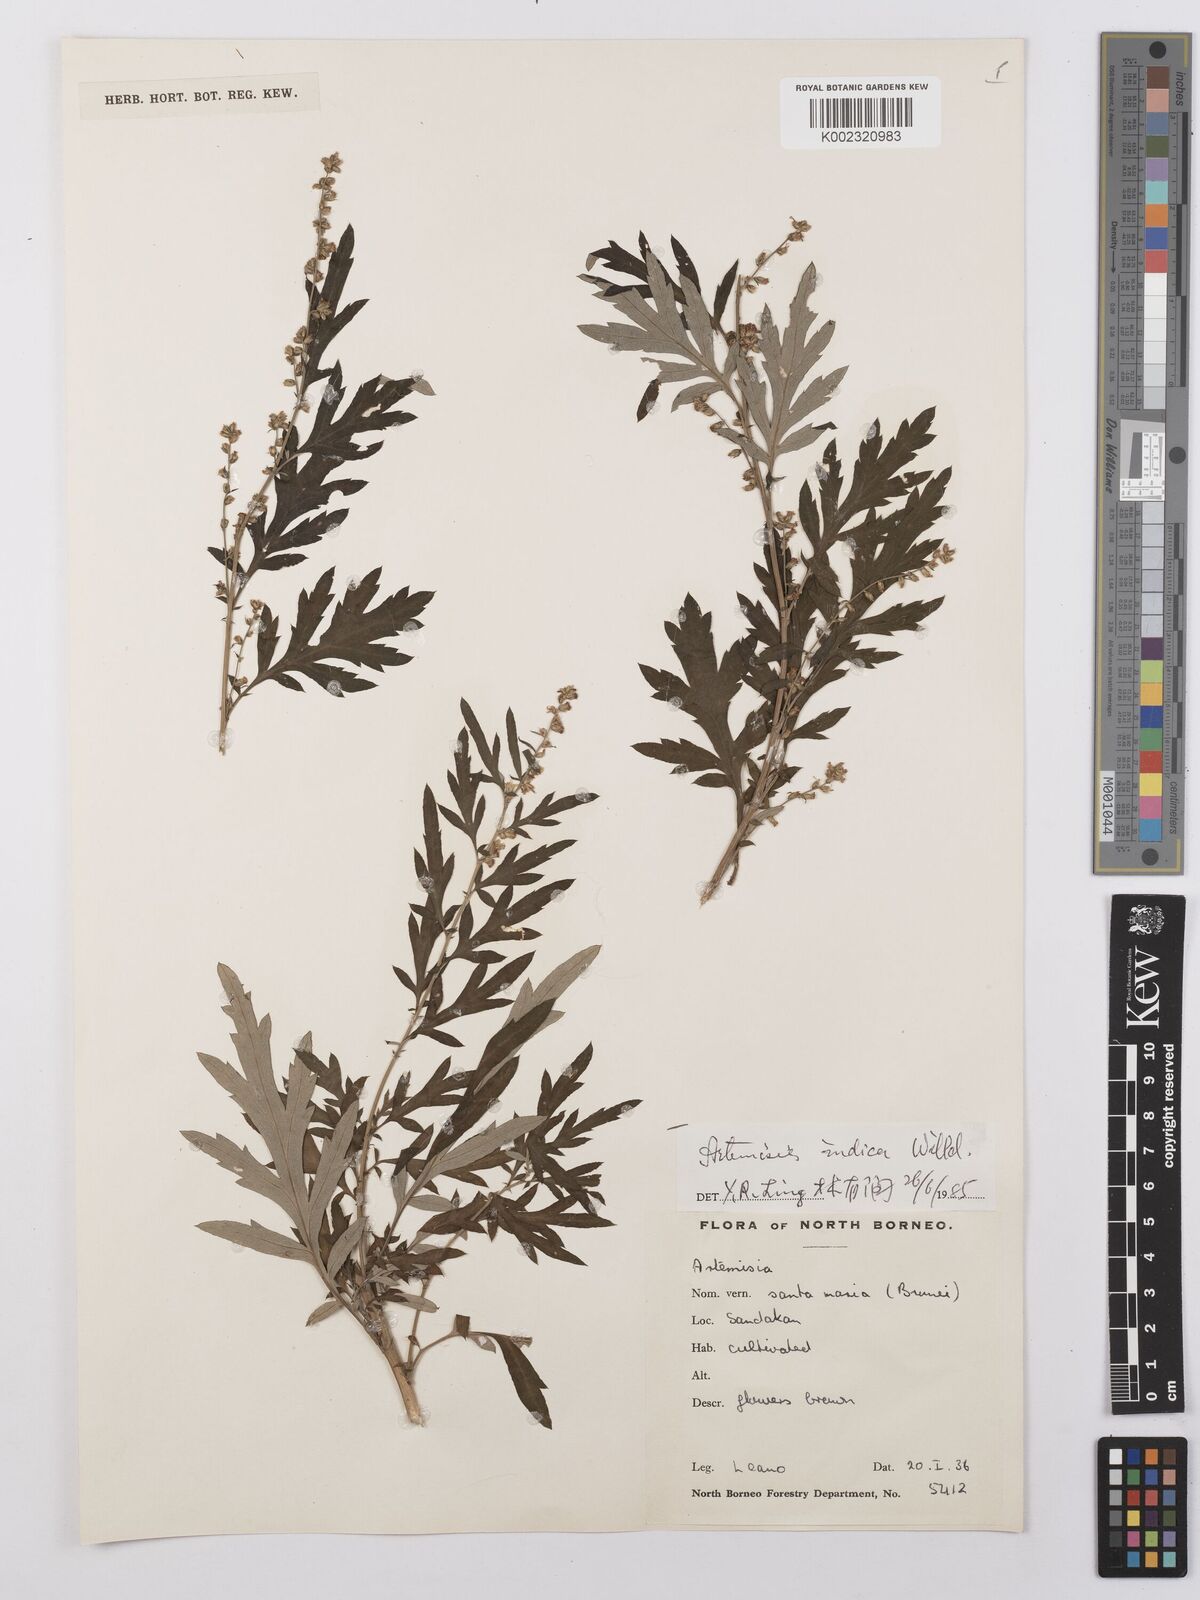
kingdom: Plantae
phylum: Tracheophyta
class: Magnoliopsida
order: Asterales
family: Asteraceae
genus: Artemisia
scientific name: Artemisia
